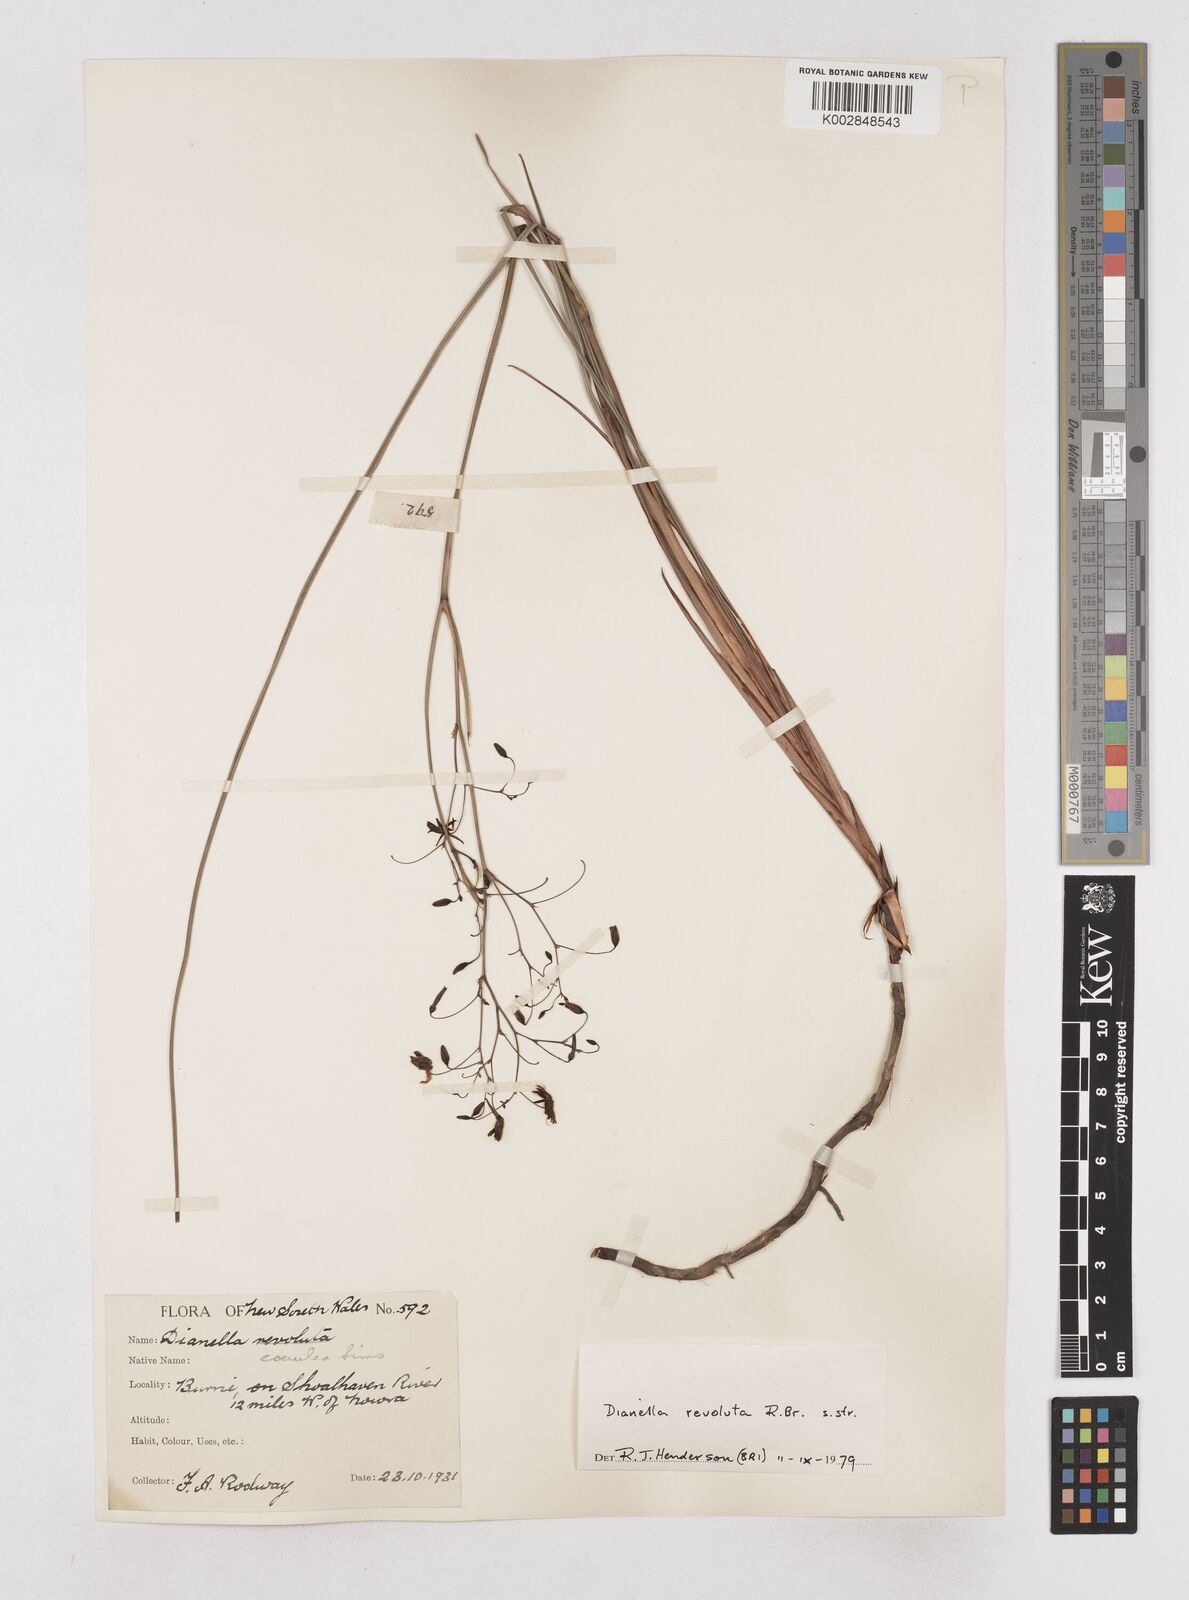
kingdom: Plantae
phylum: Tracheophyta
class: Liliopsida
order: Asparagales
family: Asphodelaceae
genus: Dianella
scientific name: Dianella revoluta
